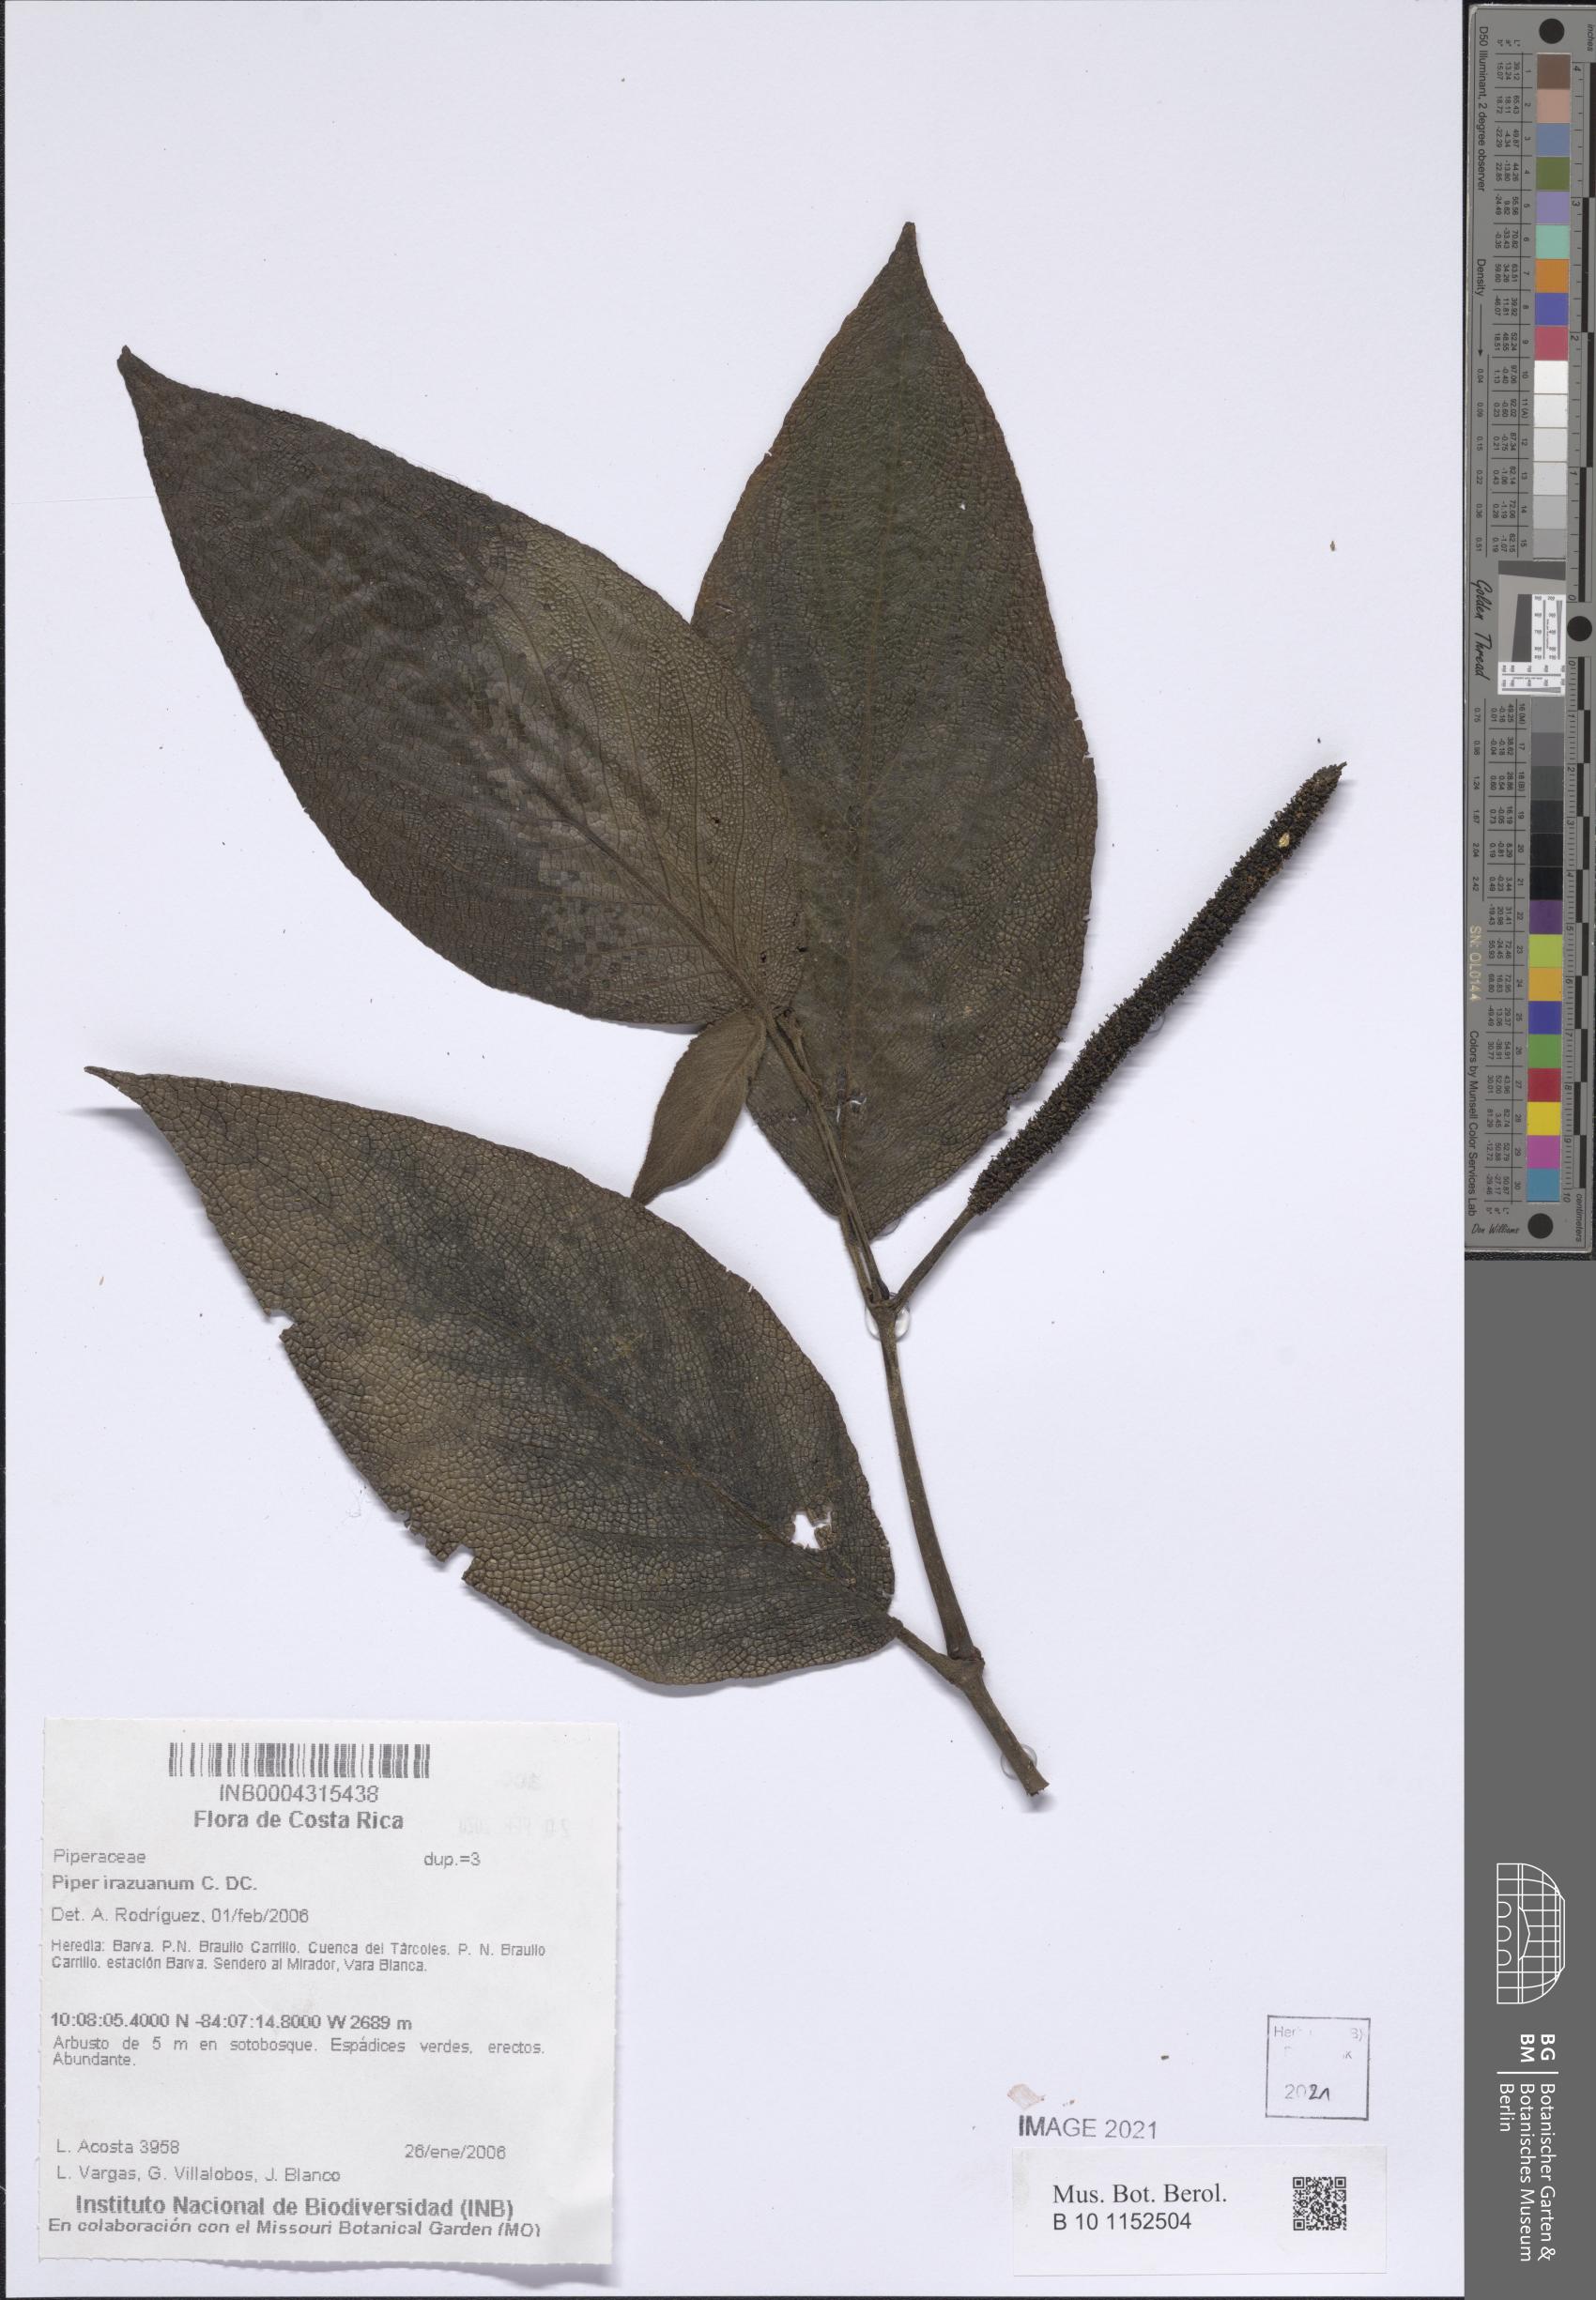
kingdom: Plantae
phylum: Tracheophyta
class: Magnoliopsida
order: Piperales
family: Piperaceae
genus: Piper
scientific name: Piper irazuanum
